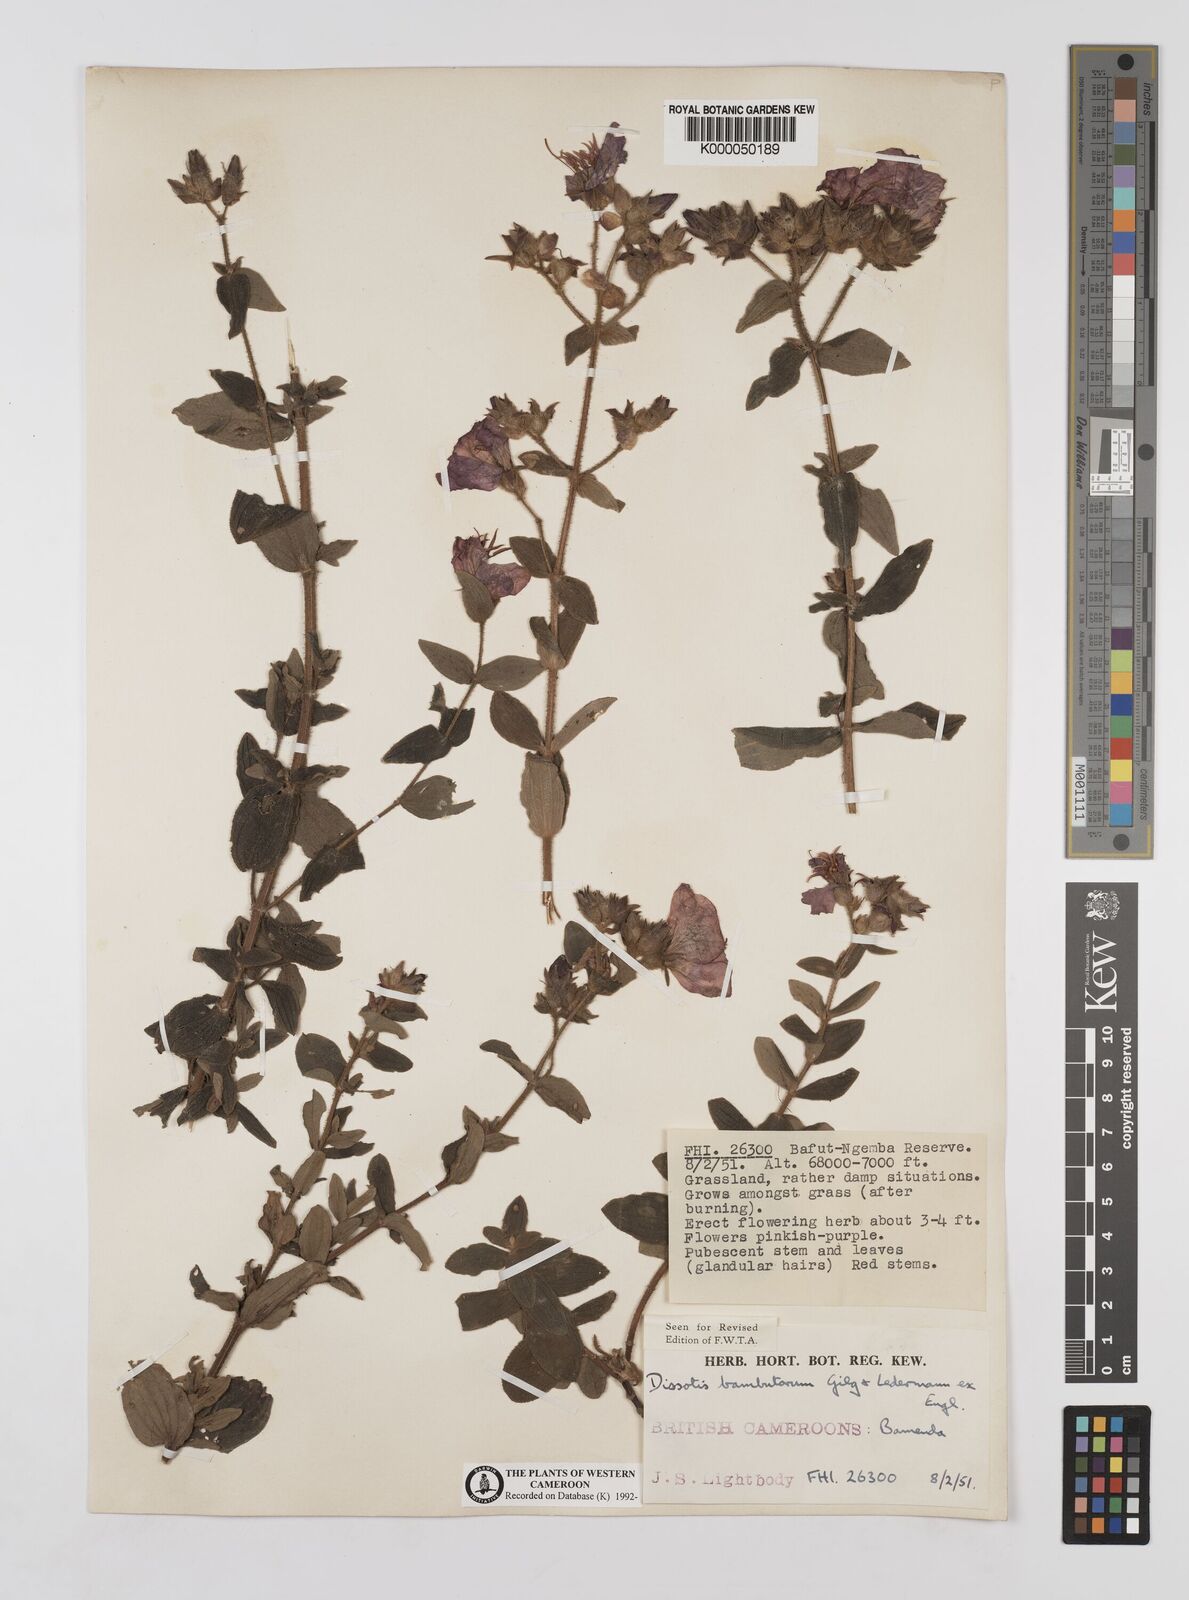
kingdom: Plantae
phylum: Tracheophyta
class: Magnoliopsida
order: Myrtales
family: Melastomataceae
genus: Argyrella
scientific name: Argyrella bambutorum
